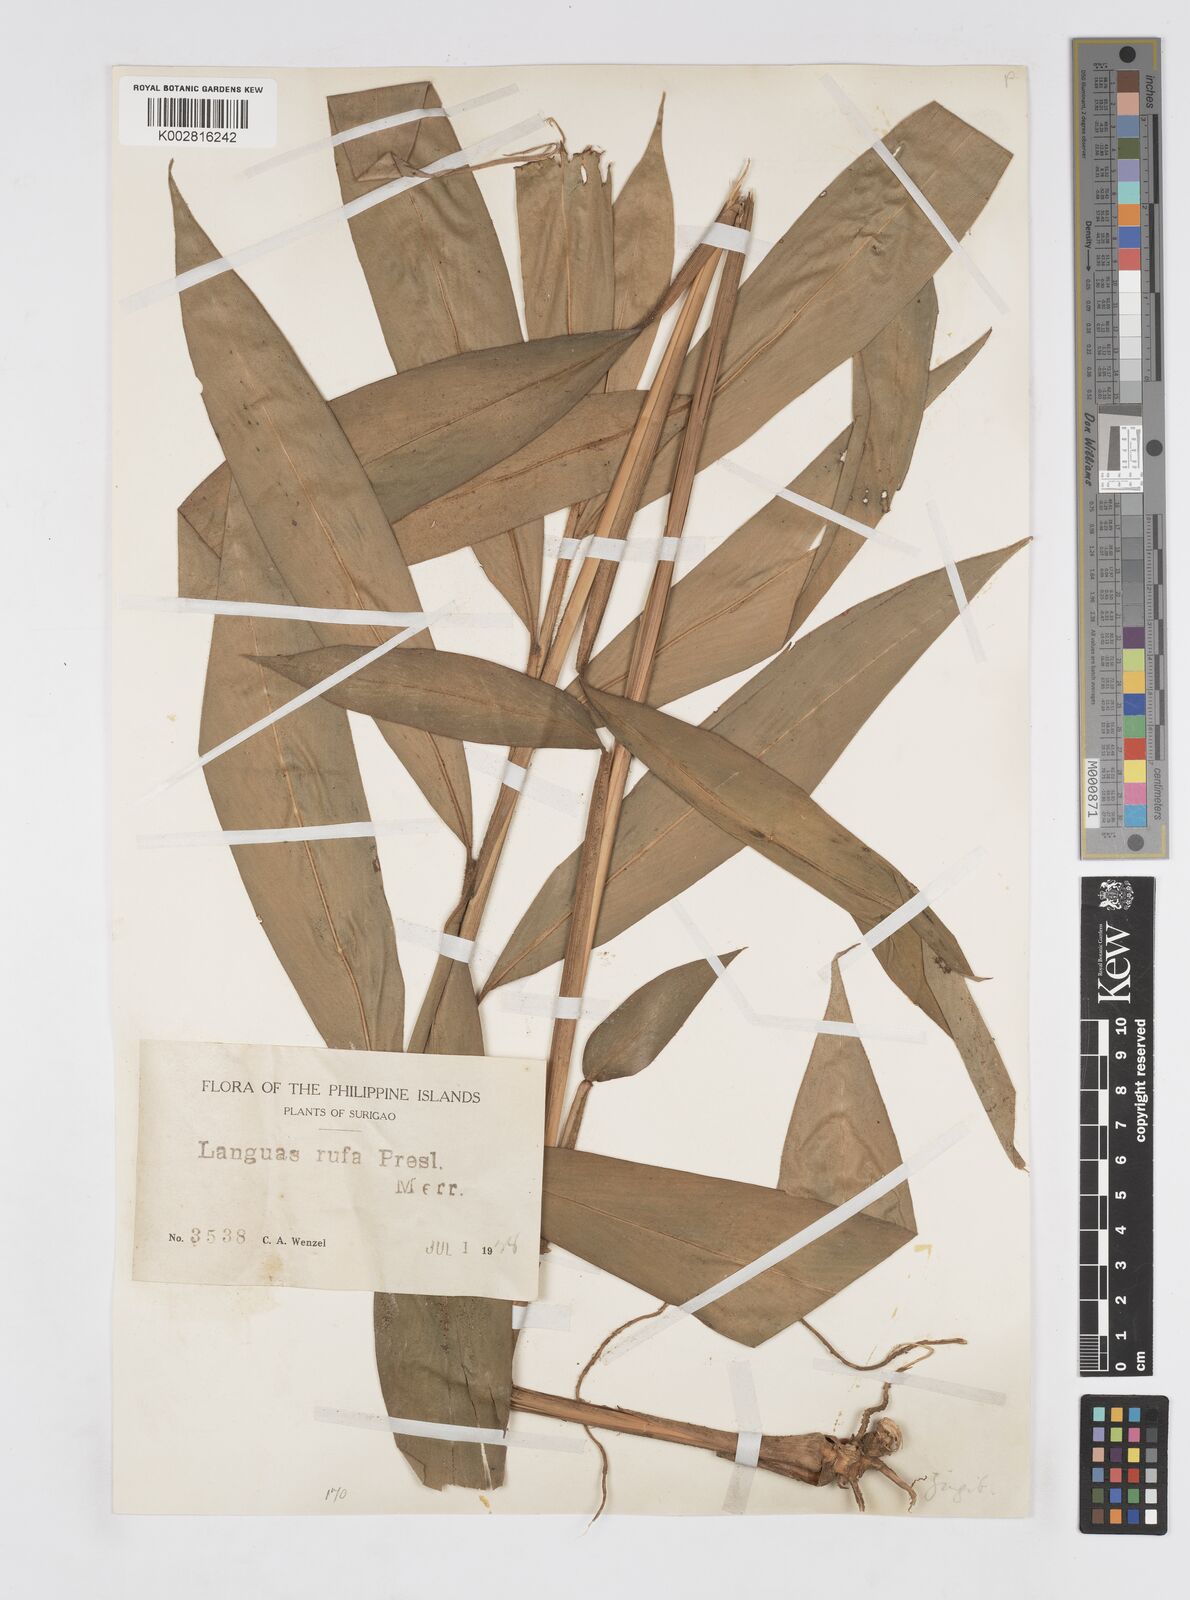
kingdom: Plantae
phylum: Tracheophyta
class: Liliopsida
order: Zingiberales
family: Zingiberaceae
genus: Alpinia
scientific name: Alpinia rufa
